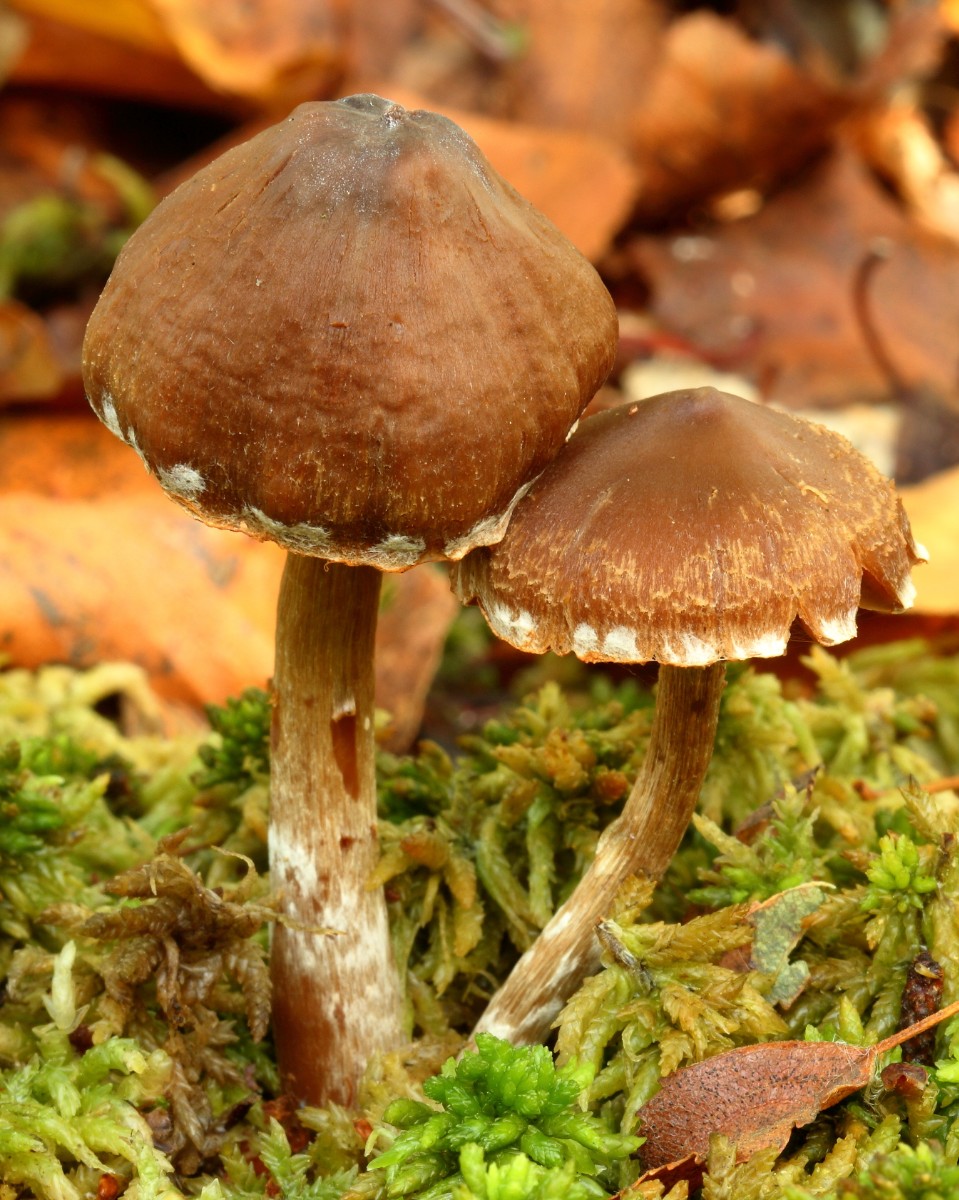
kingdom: Fungi
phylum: Basidiomycota
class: Agaricomycetes
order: Agaricales
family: Cortinariaceae
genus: Cortinarius
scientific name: Cortinarius
